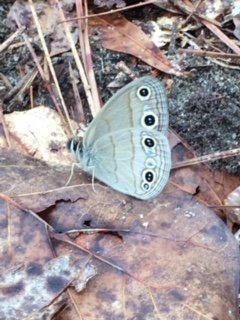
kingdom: Animalia
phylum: Arthropoda
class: Insecta
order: Lepidoptera
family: Nymphalidae
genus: Euptychia
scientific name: Euptychia cymela
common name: Little Wood Satyr
